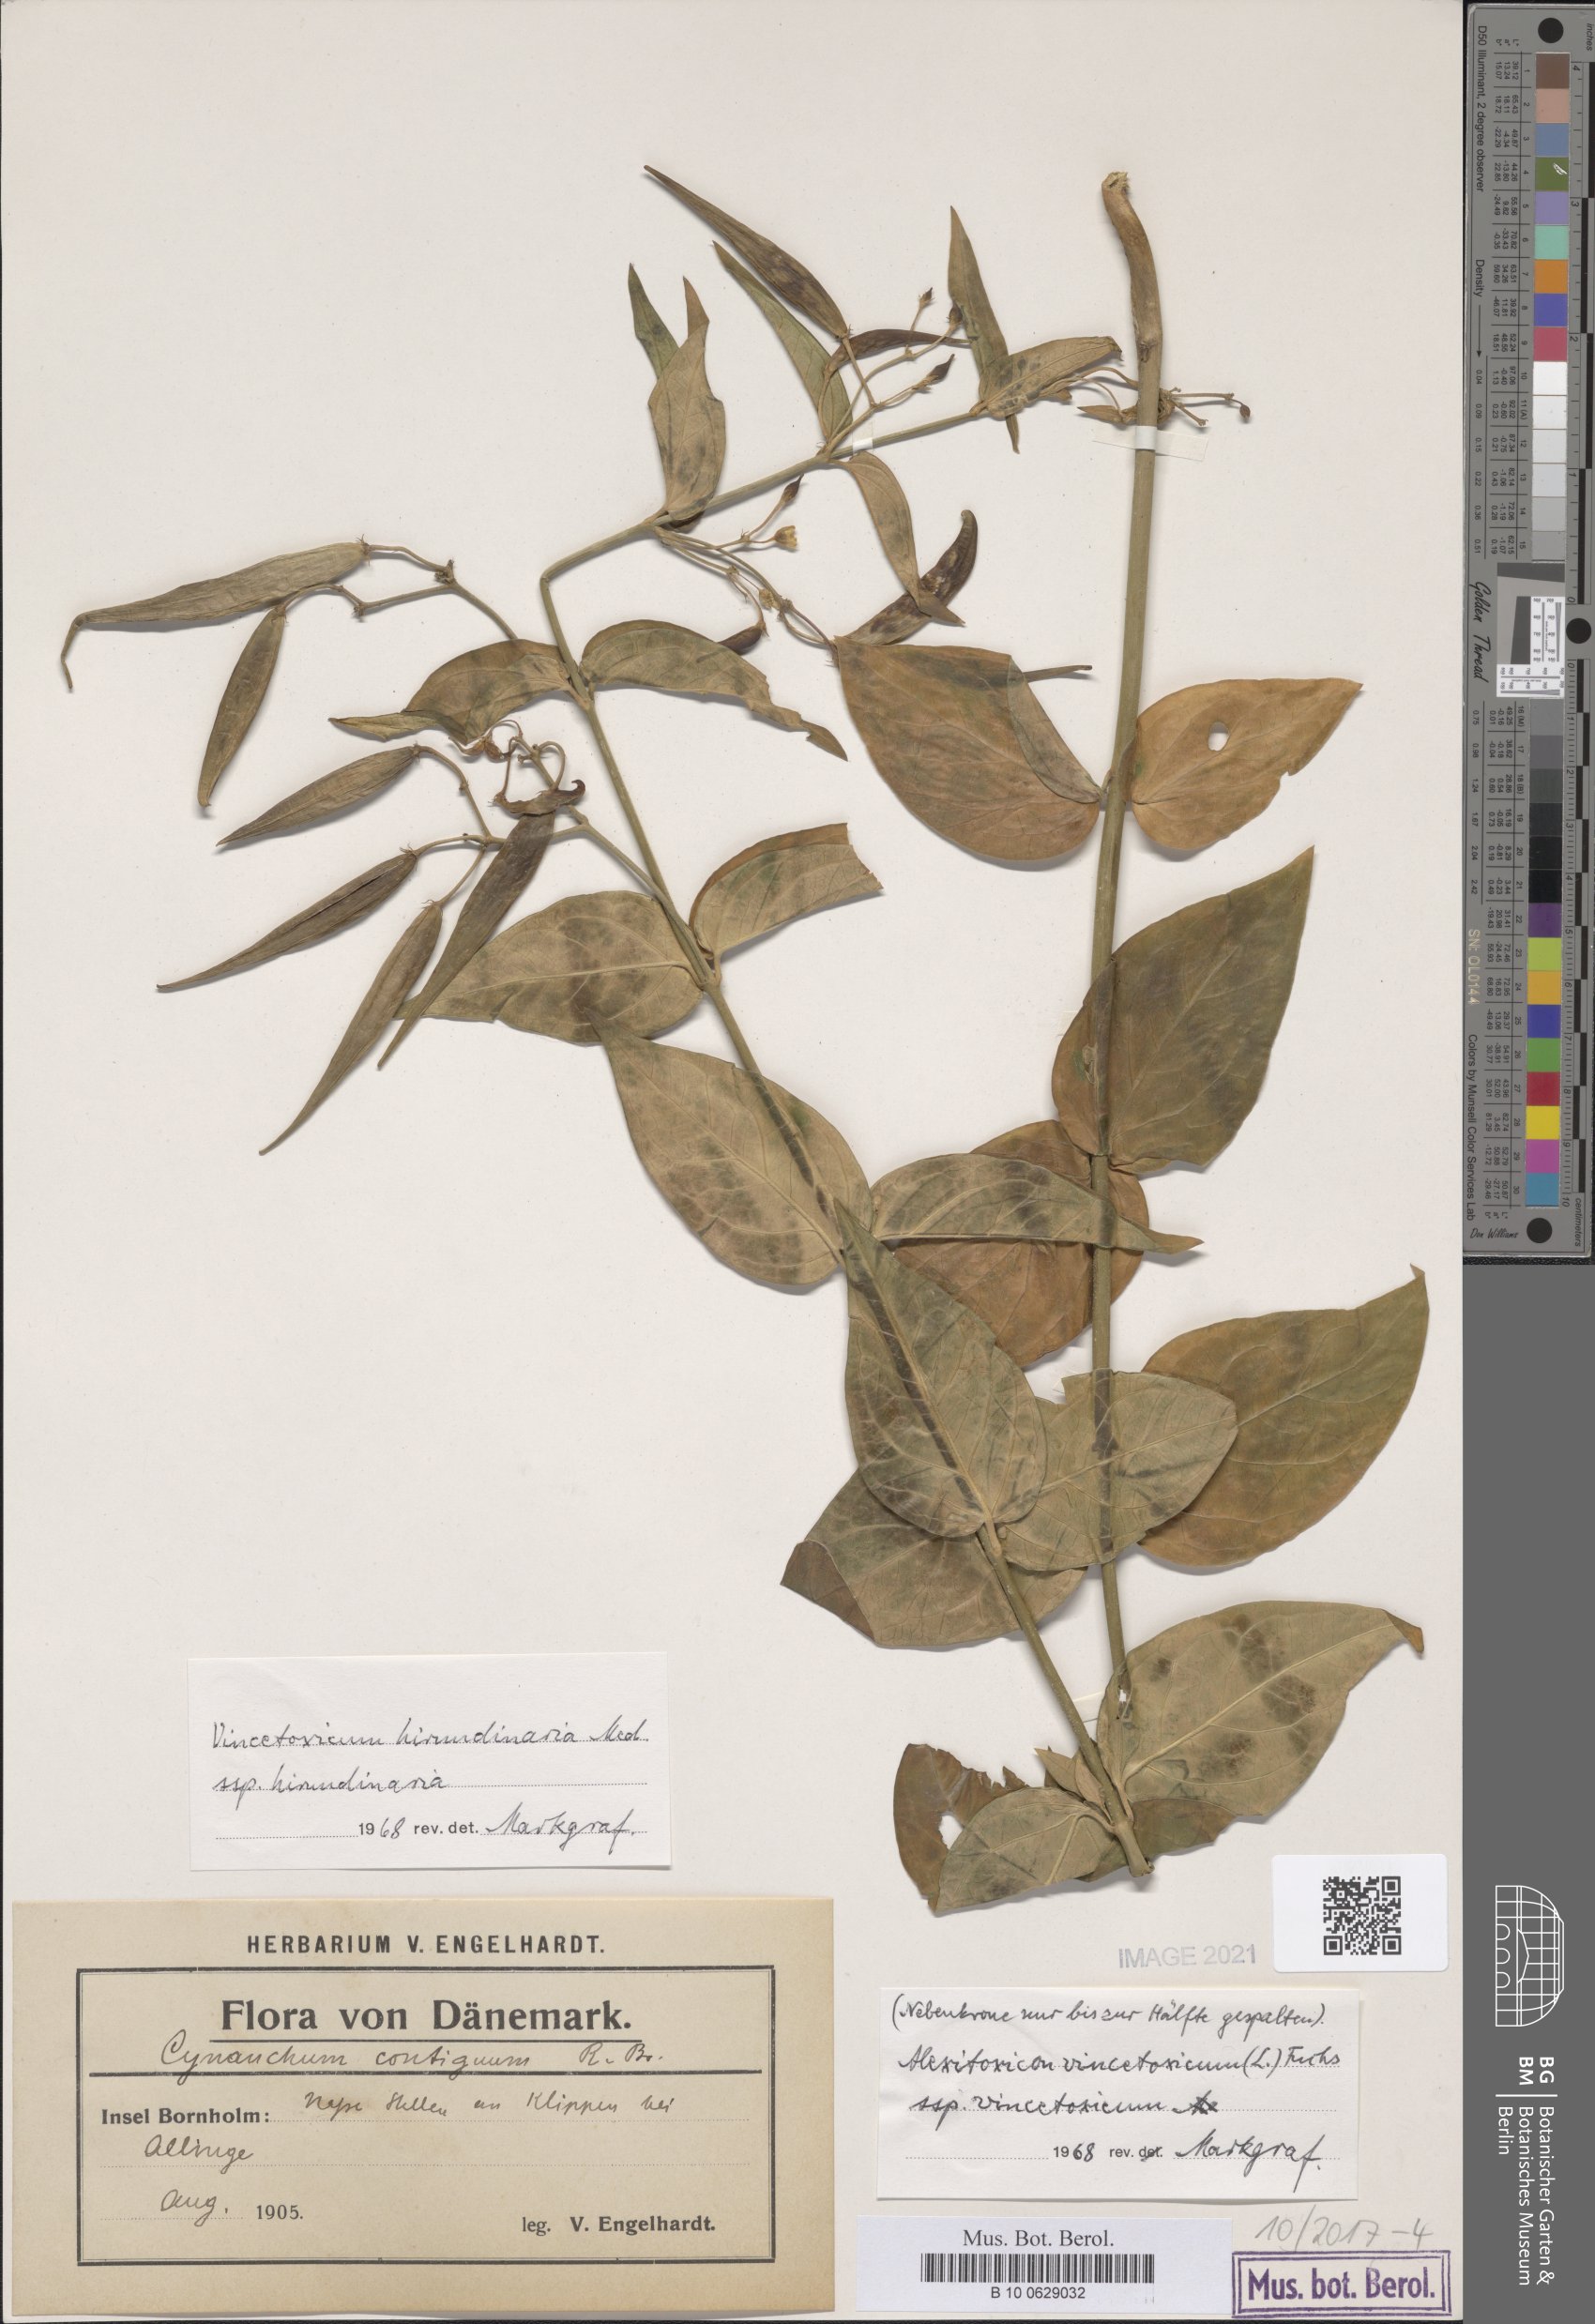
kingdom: Plantae
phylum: Tracheophyta
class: Magnoliopsida
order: Gentianales
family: Apocynaceae
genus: Vincetoxicum
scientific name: Vincetoxicum hirundinaria
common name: White swallowwort
